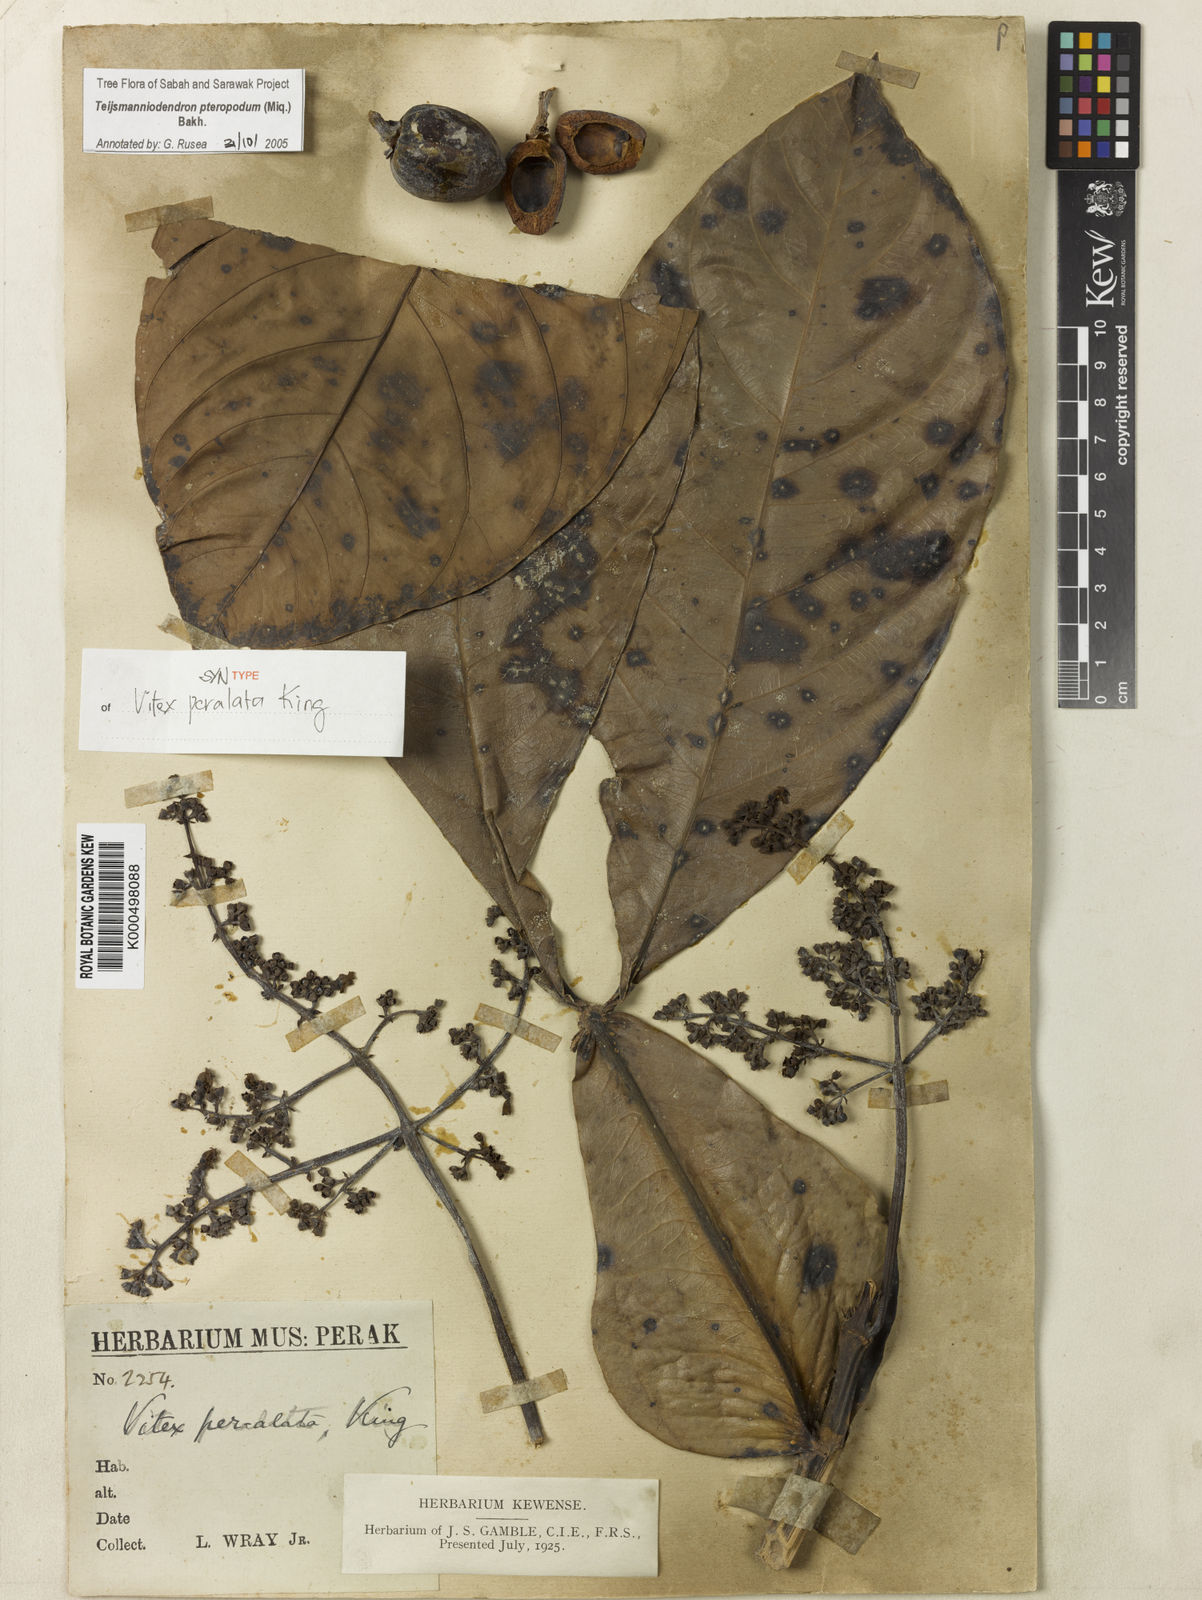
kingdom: Plantae
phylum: Tracheophyta
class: Magnoliopsida
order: Lamiales
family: Lamiaceae
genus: Teijsmanniodendron
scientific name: Teijsmanniodendron pteropodum
